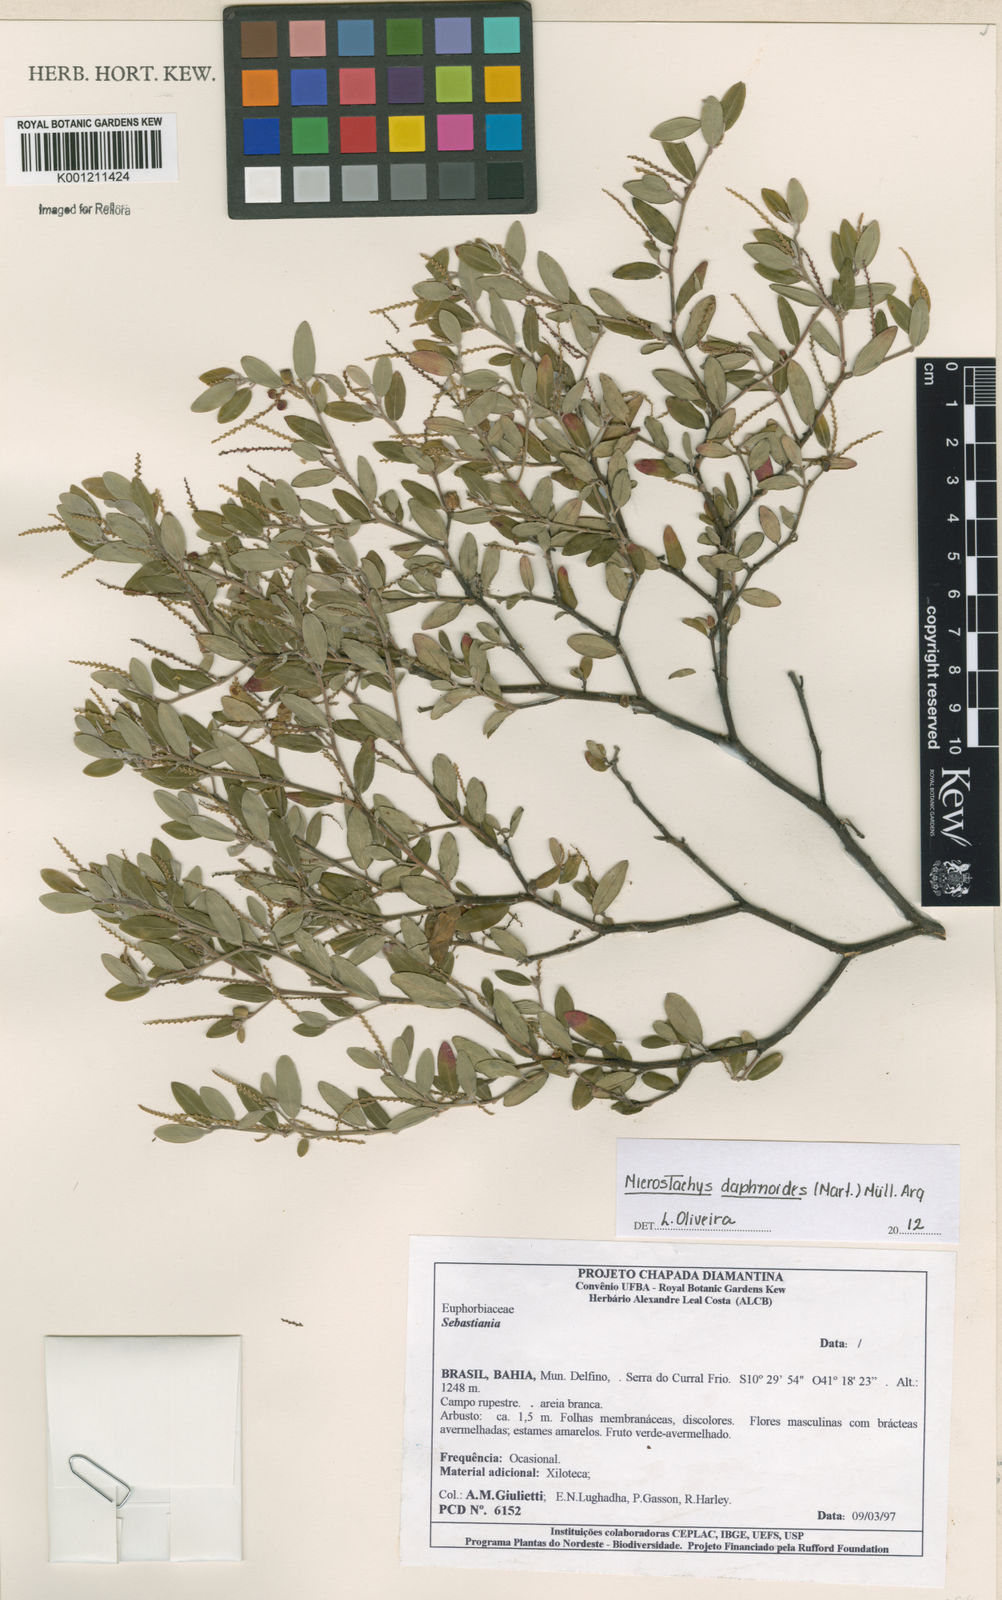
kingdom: Plantae
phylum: Tracheophyta
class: Magnoliopsida
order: Malpighiales
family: Euphorbiaceae
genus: Microstachys
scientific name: Microstachys
